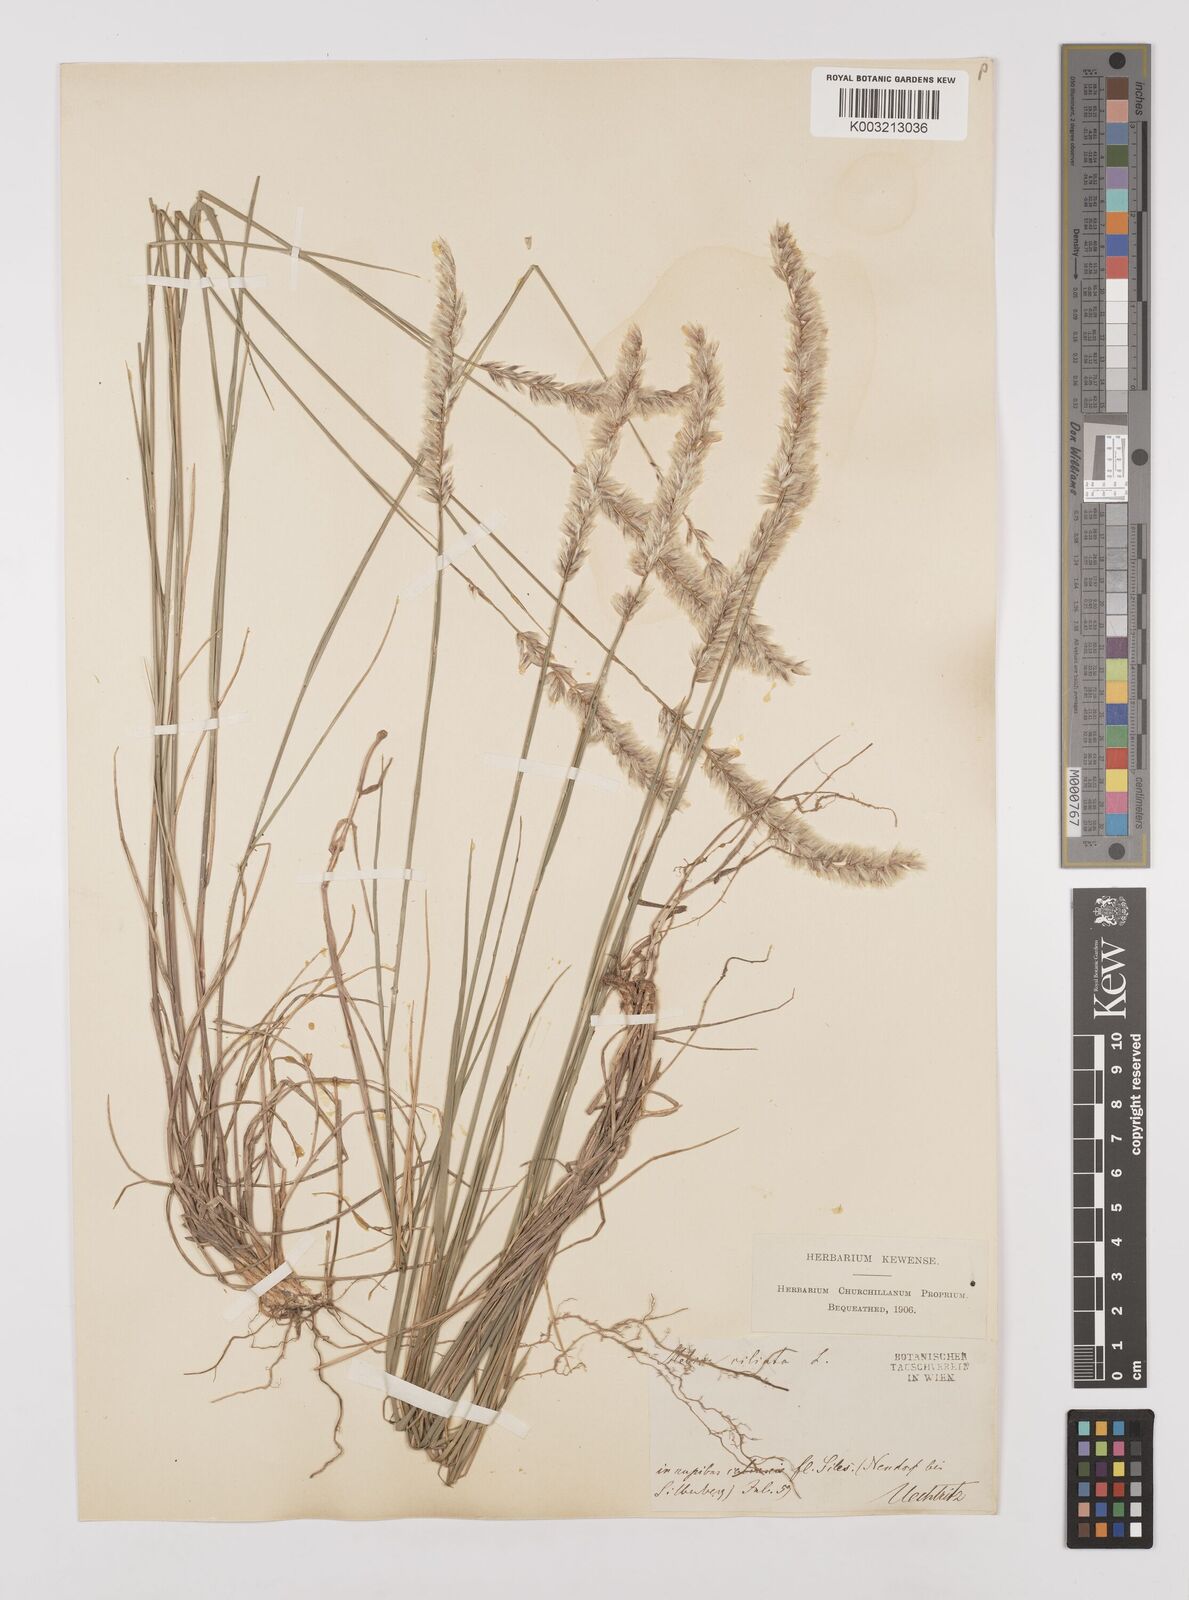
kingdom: Plantae
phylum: Tracheophyta
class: Liliopsida
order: Poales
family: Poaceae
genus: Melica
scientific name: Melica ciliata
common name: Hairy melicgrass
